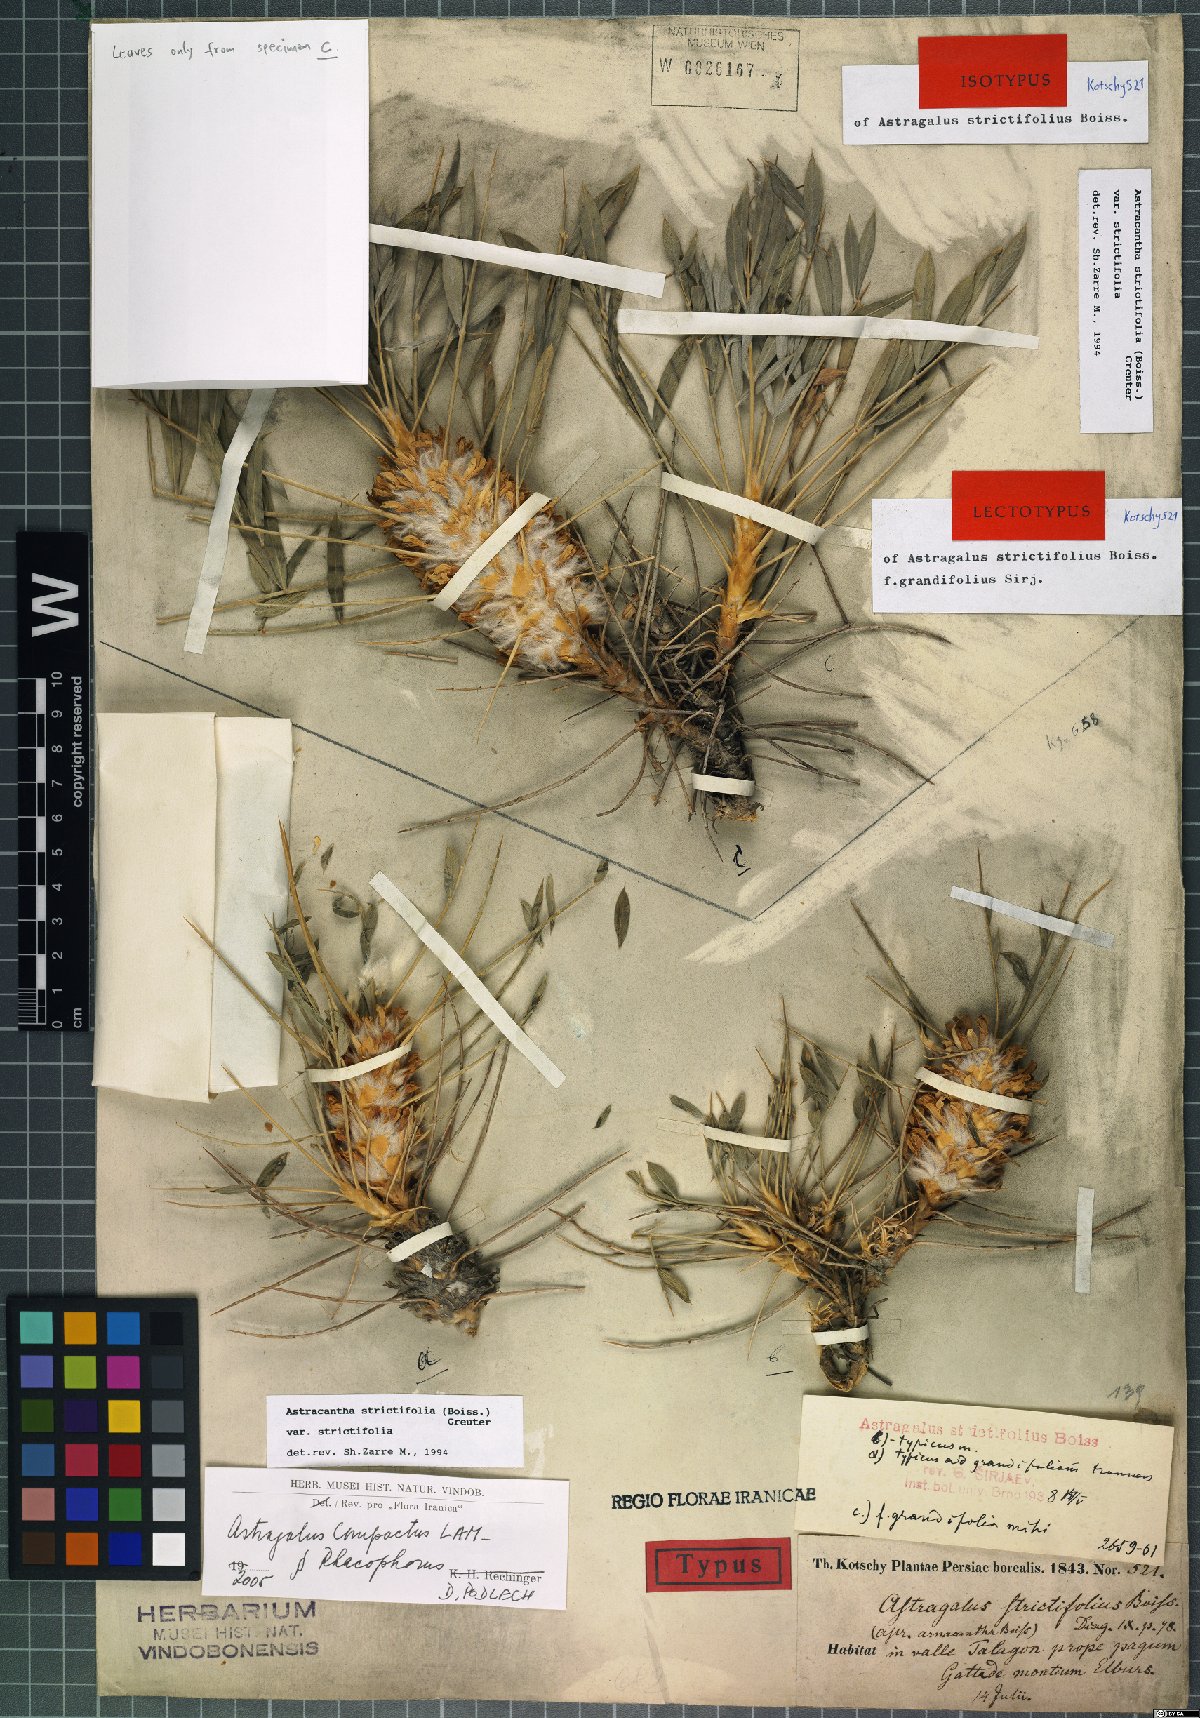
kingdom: Plantae
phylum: Tracheophyta
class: Magnoliopsida
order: Fabales
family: Fabaceae
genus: Astragalus
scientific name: Astragalus compactus
